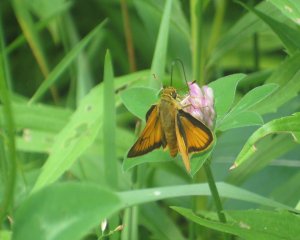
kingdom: Animalia
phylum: Arthropoda
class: Insecta
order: Lepidoptera
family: Hesperiidae
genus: Thymelicus
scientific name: Thymelicus lineola
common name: European Skipper
